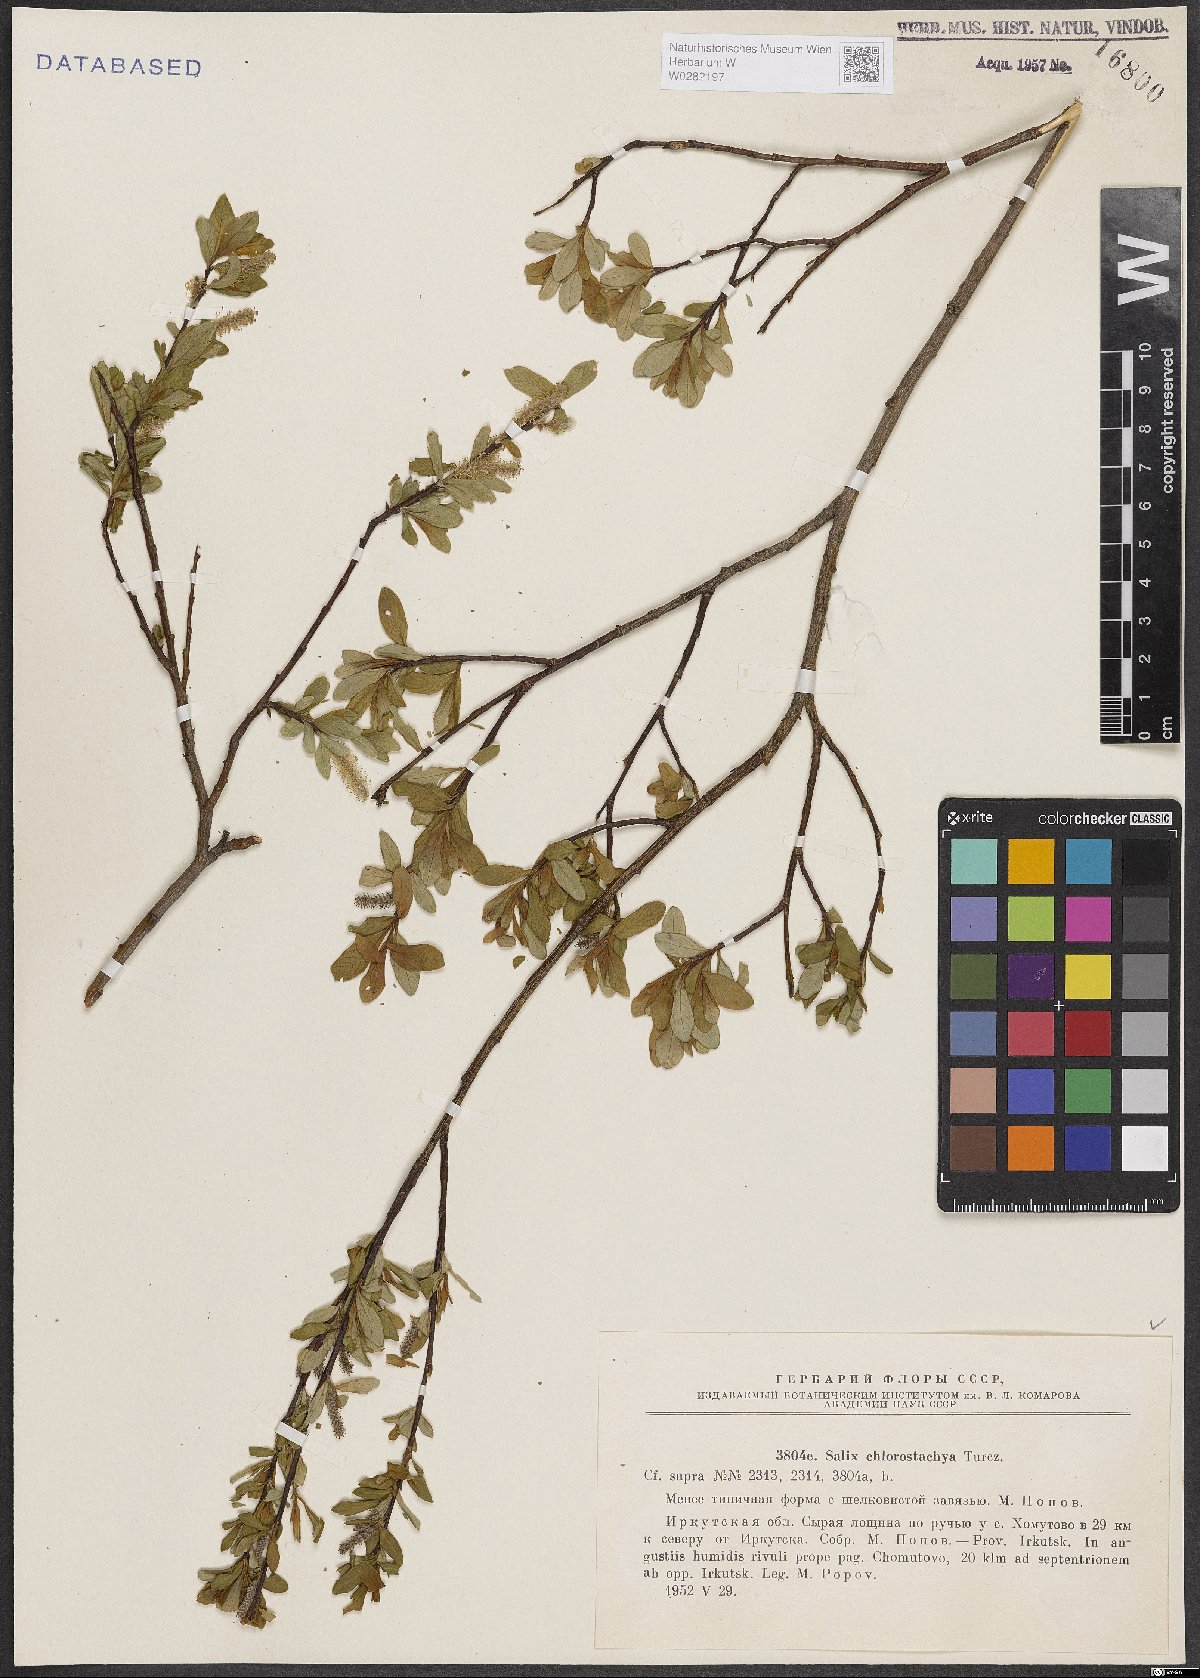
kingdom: Plantae
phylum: Tracheophyta
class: Magnoliopsida
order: Malpighiales
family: Salicaceae
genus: Salix
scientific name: Salix rhamnifolia
